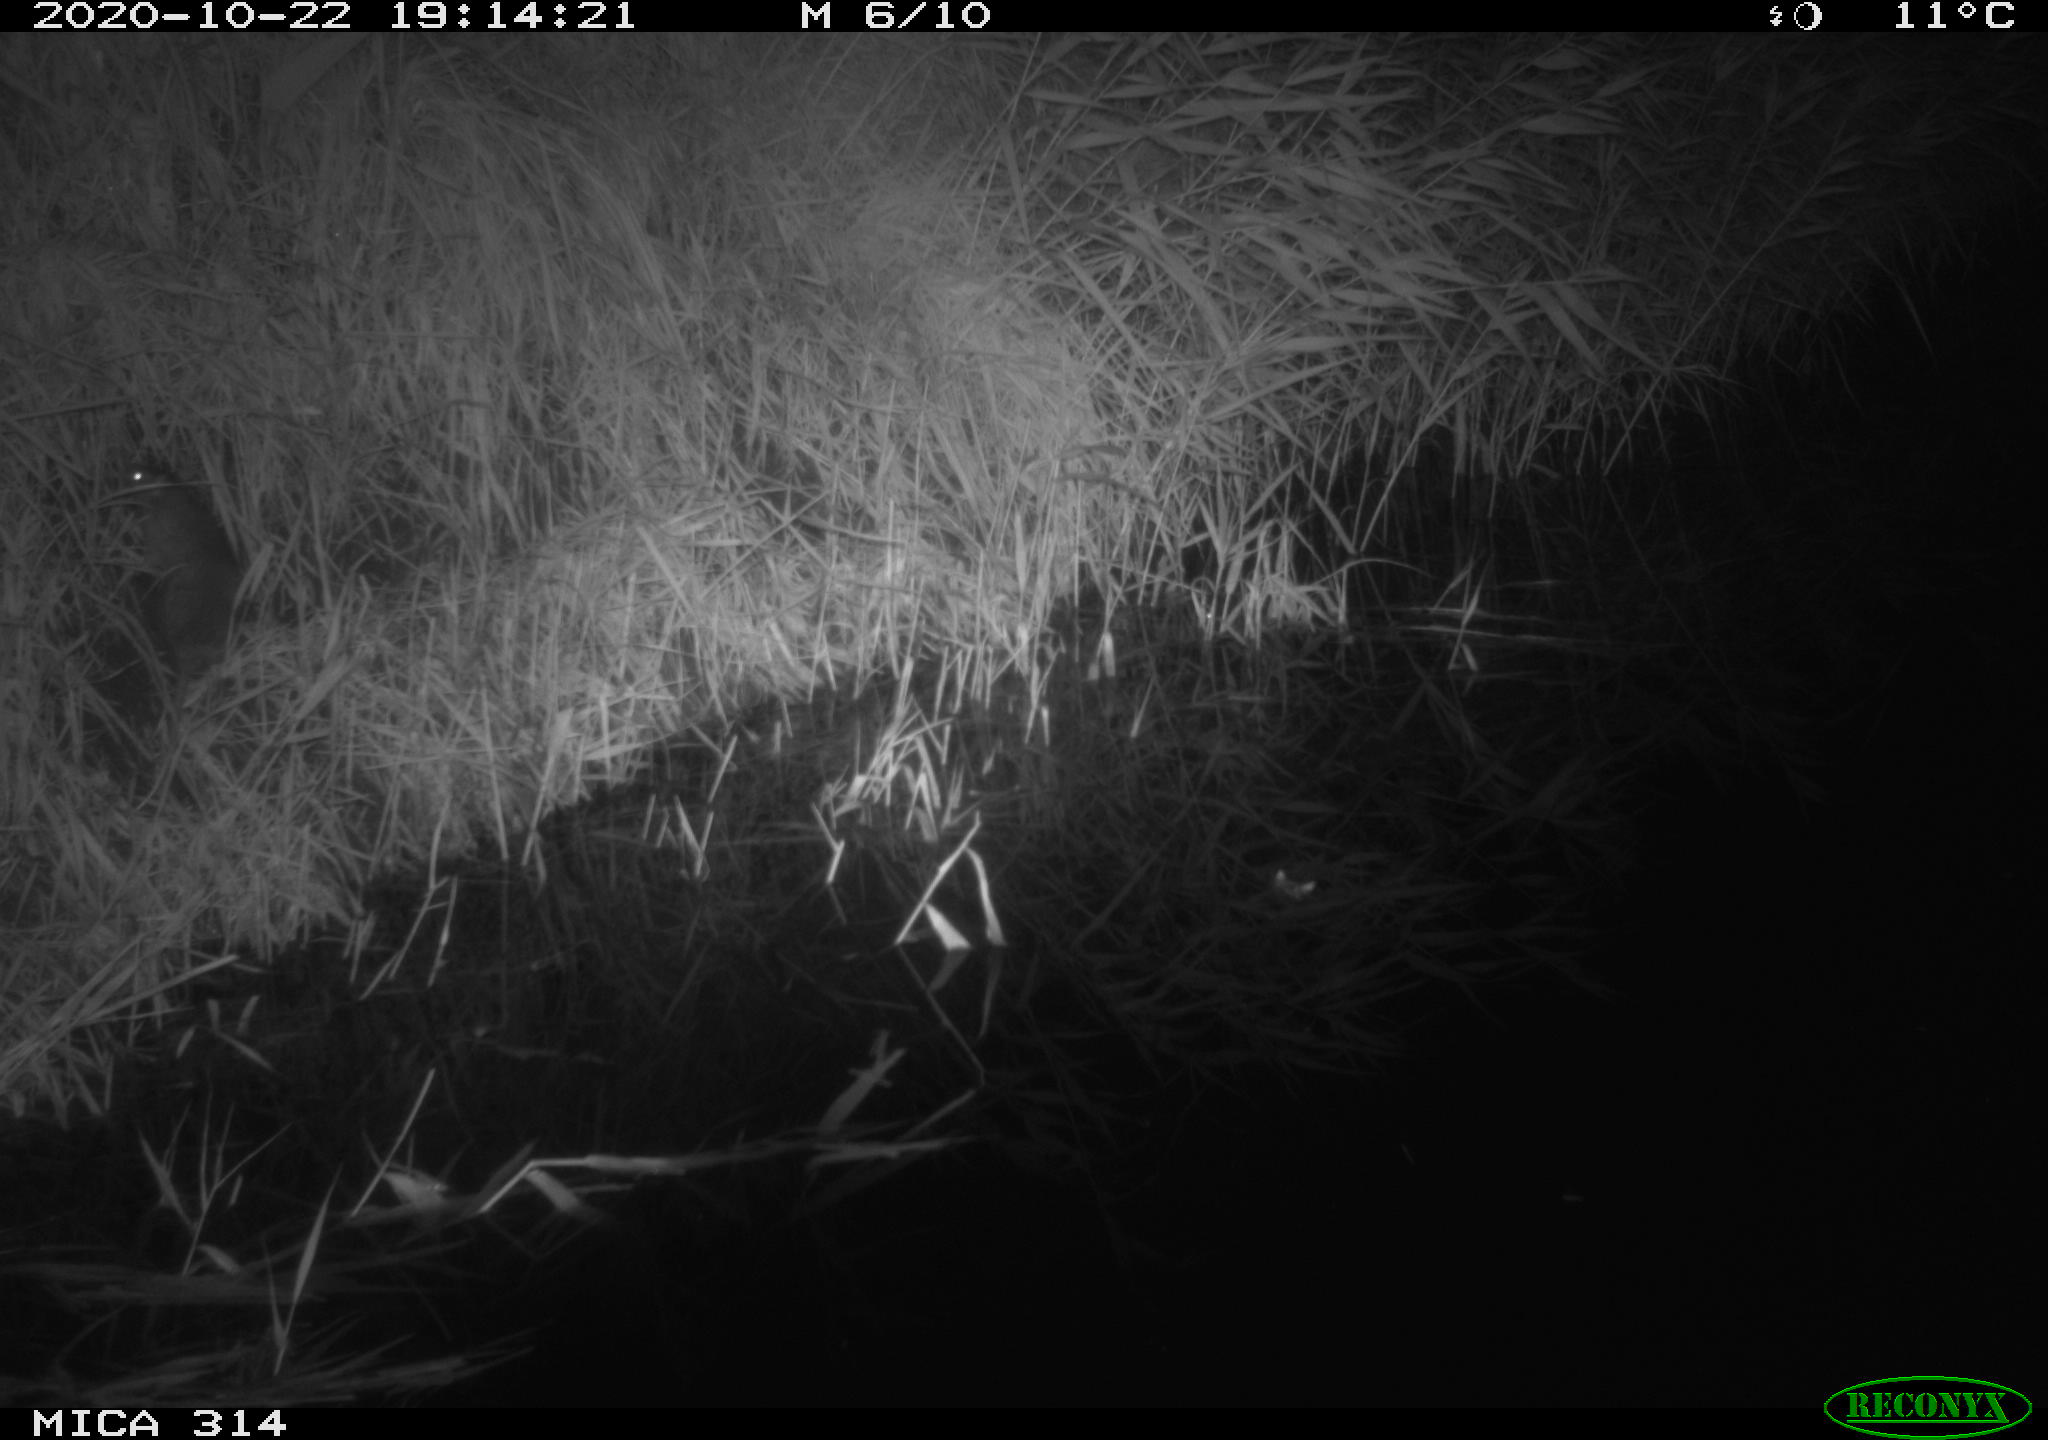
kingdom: Animalia
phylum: Chordata
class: Mammalia
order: Rodentia
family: Muridae
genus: Rattus
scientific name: Rattus norvegicus
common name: Brown rat
